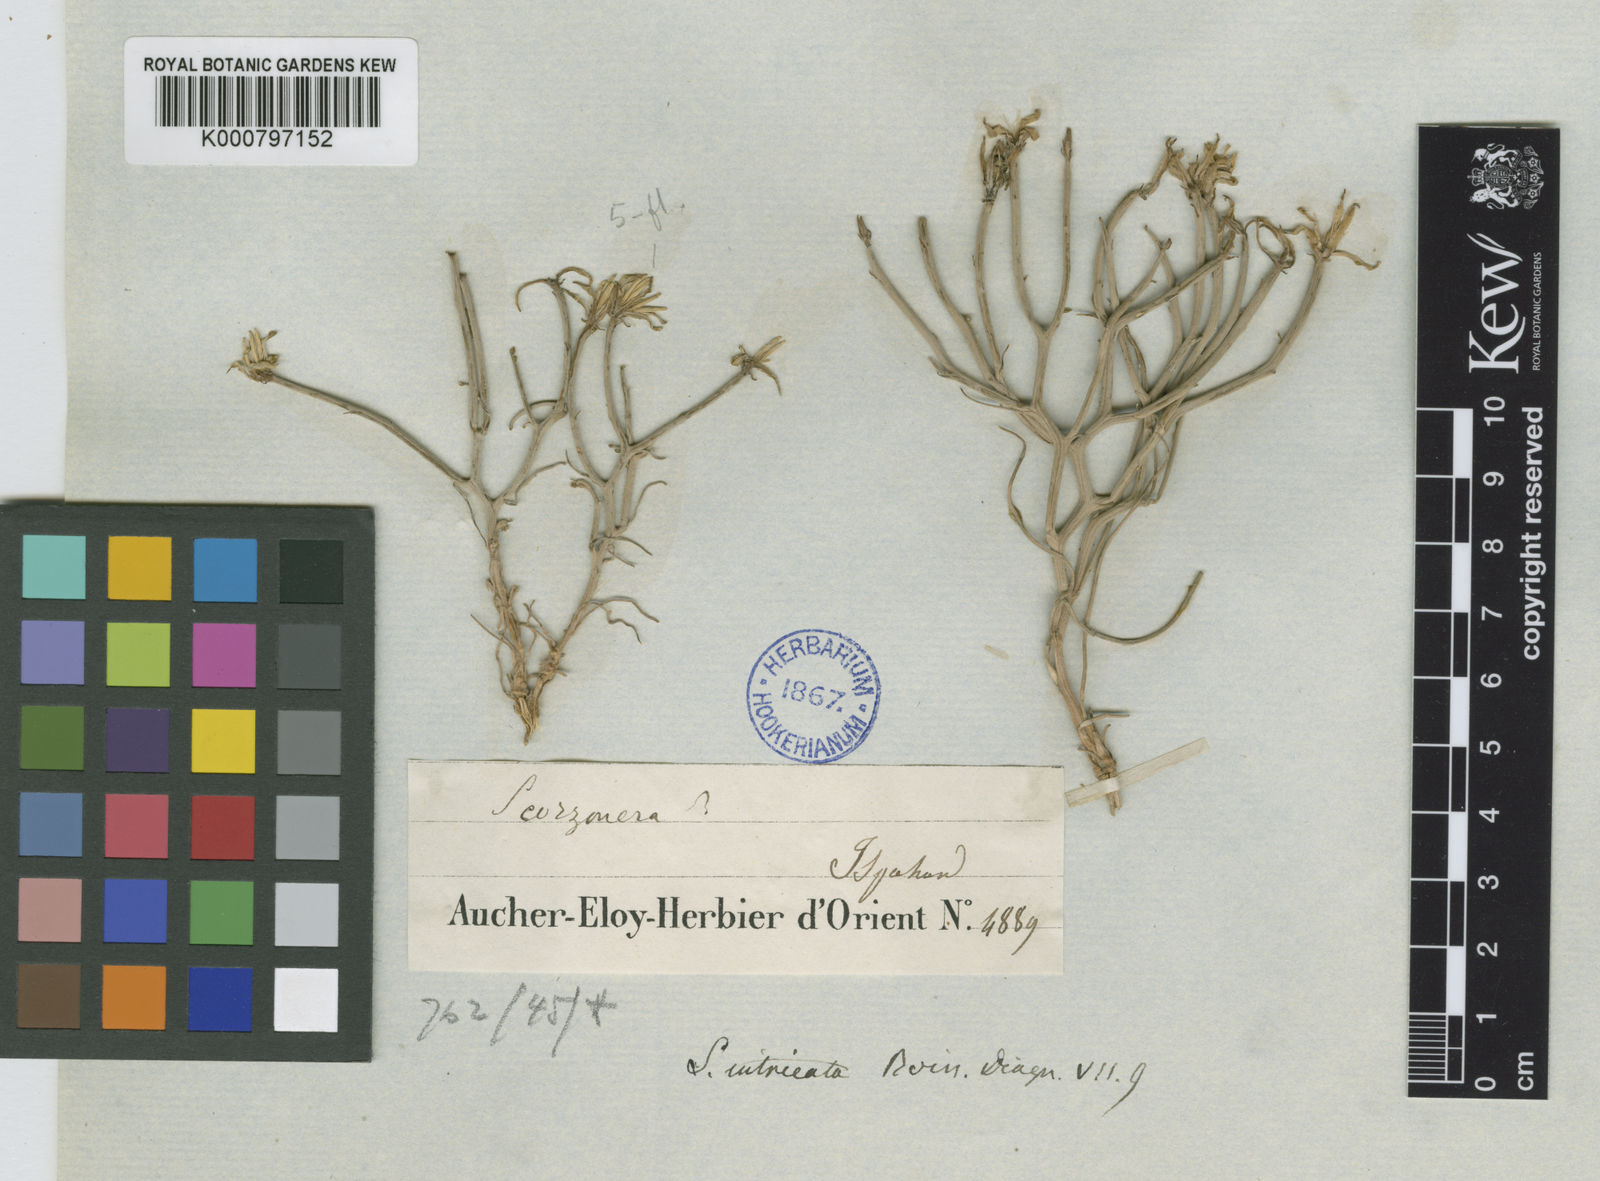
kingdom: Plantae
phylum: Tracheophyta
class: Magnoliopsida
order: Asterales
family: Asteraceae
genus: Ramaliella
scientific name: Ramaliella intricata
